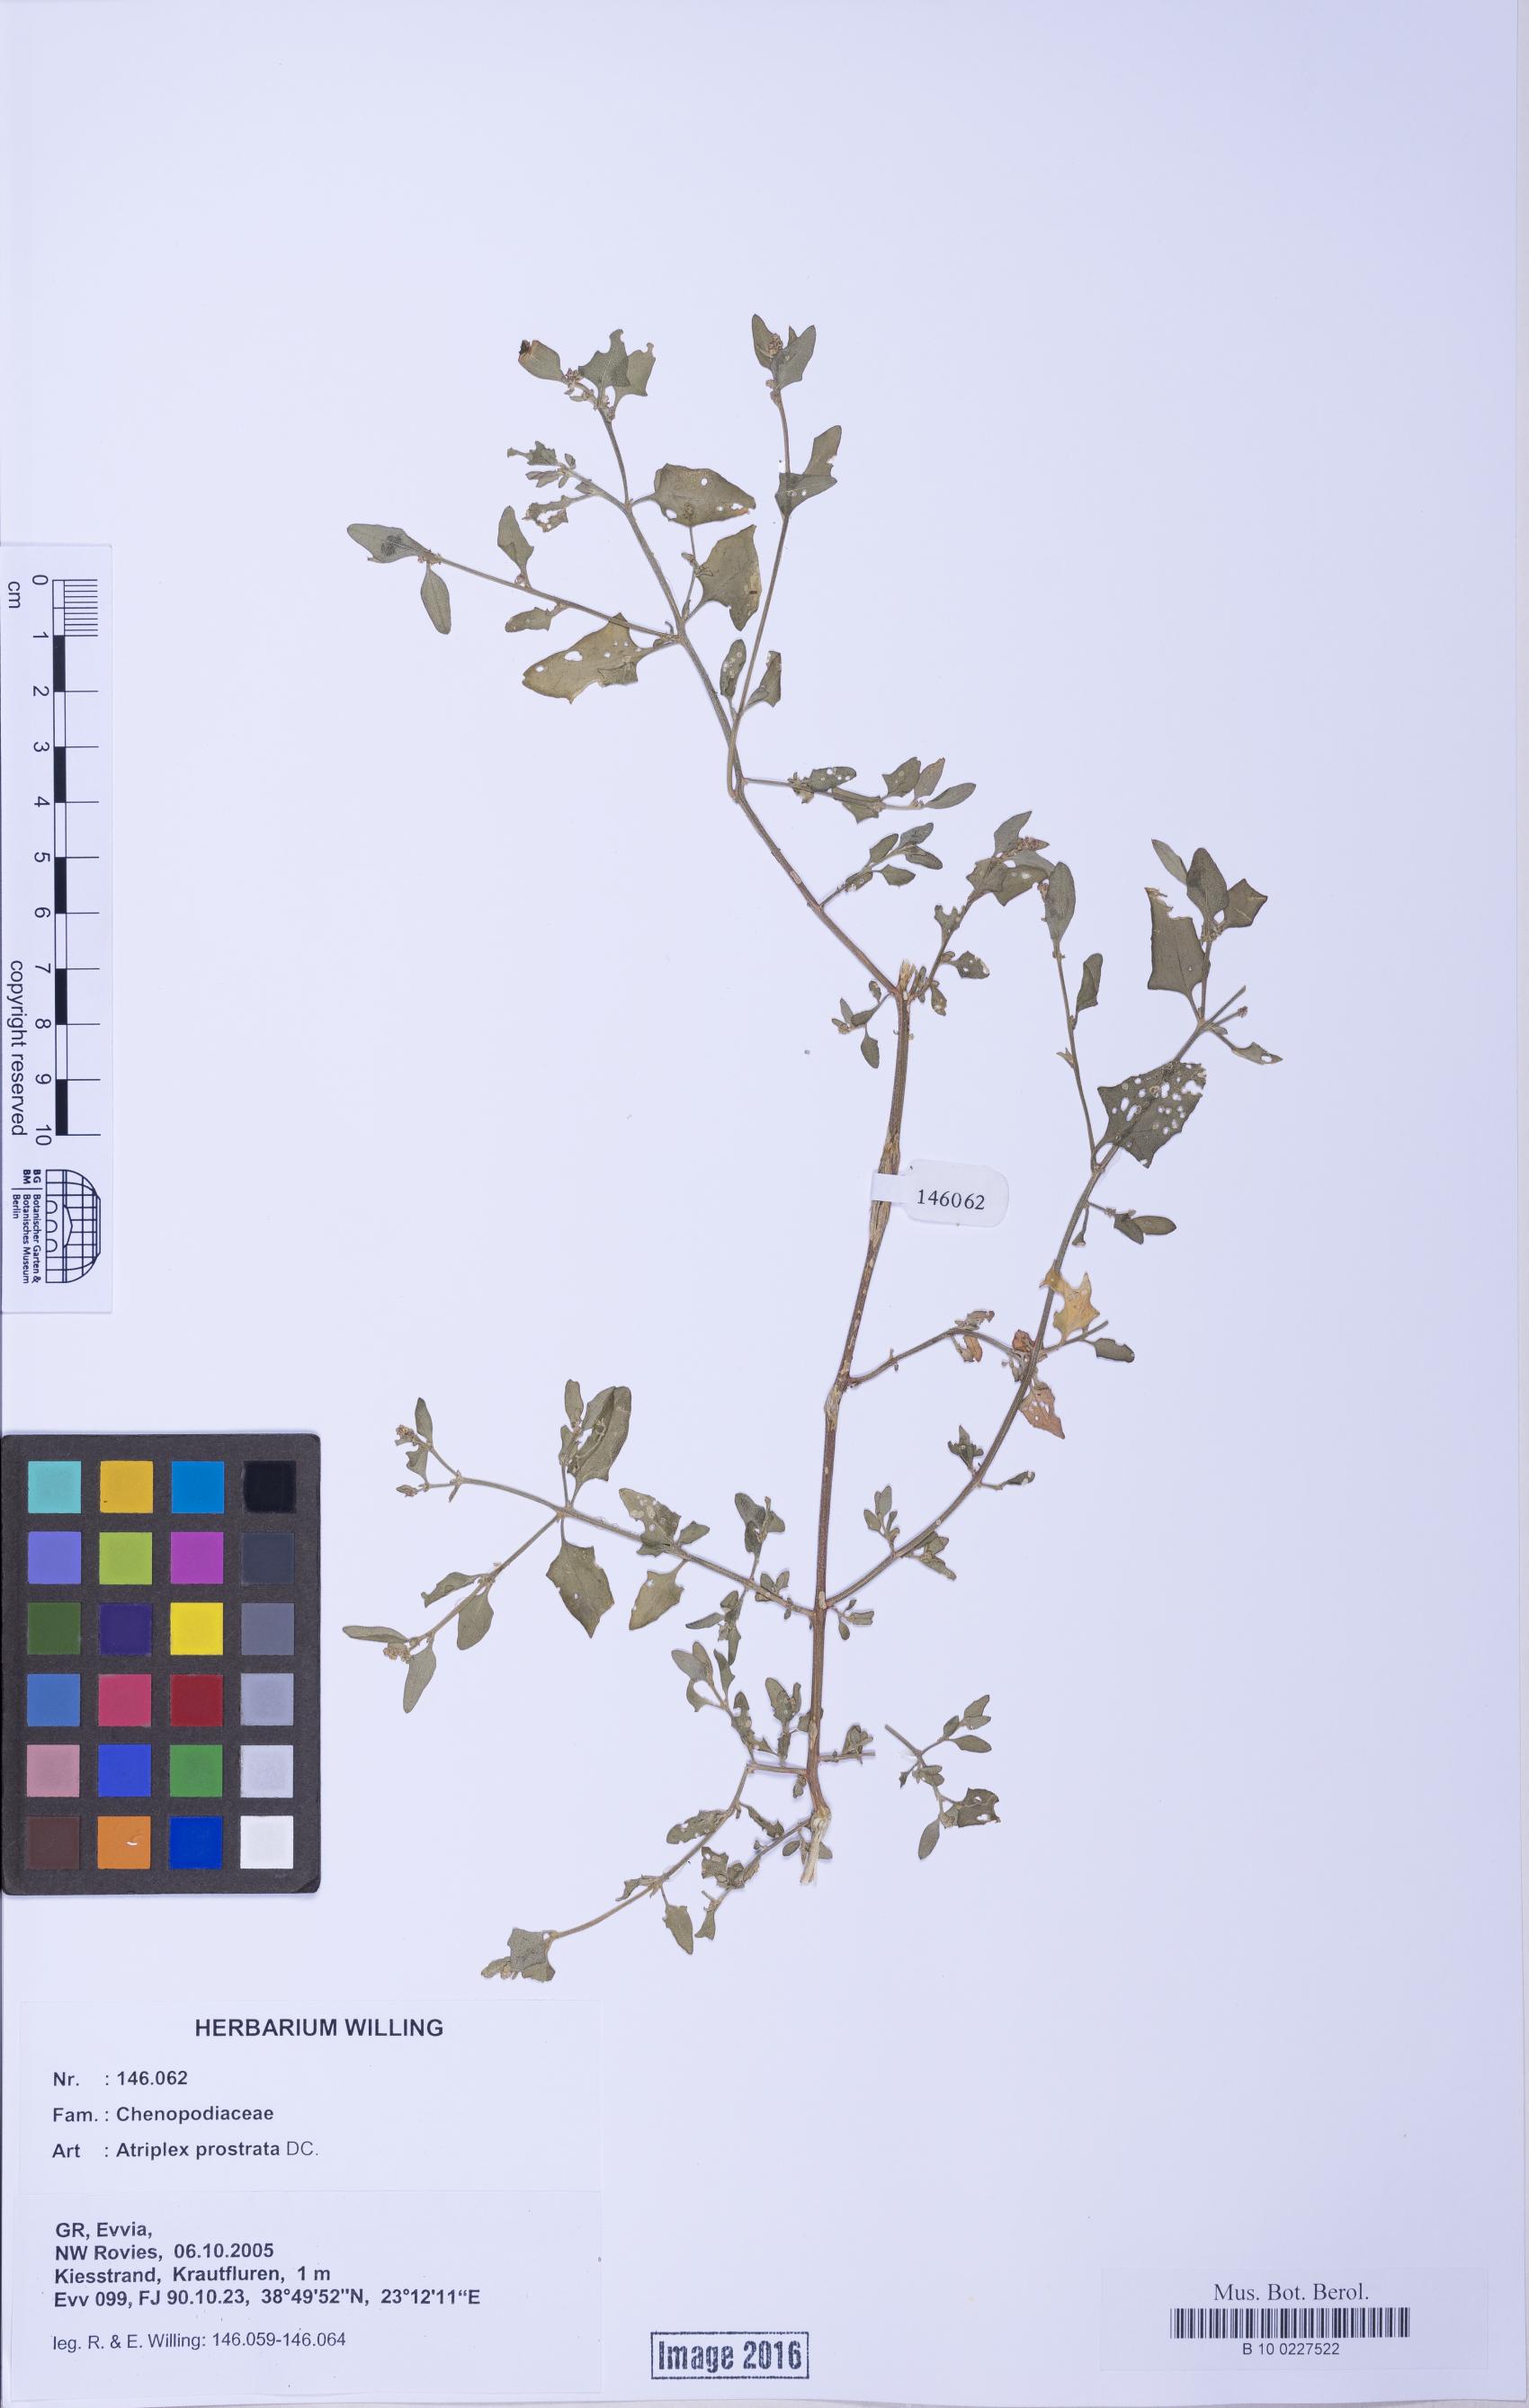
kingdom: Plantae
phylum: Tracheophyta
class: Magnoliopsida
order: Caryophyllales
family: Amaranthaceae
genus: Atriplex
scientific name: Atriplex prostrata
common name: Spear-leaved orache
